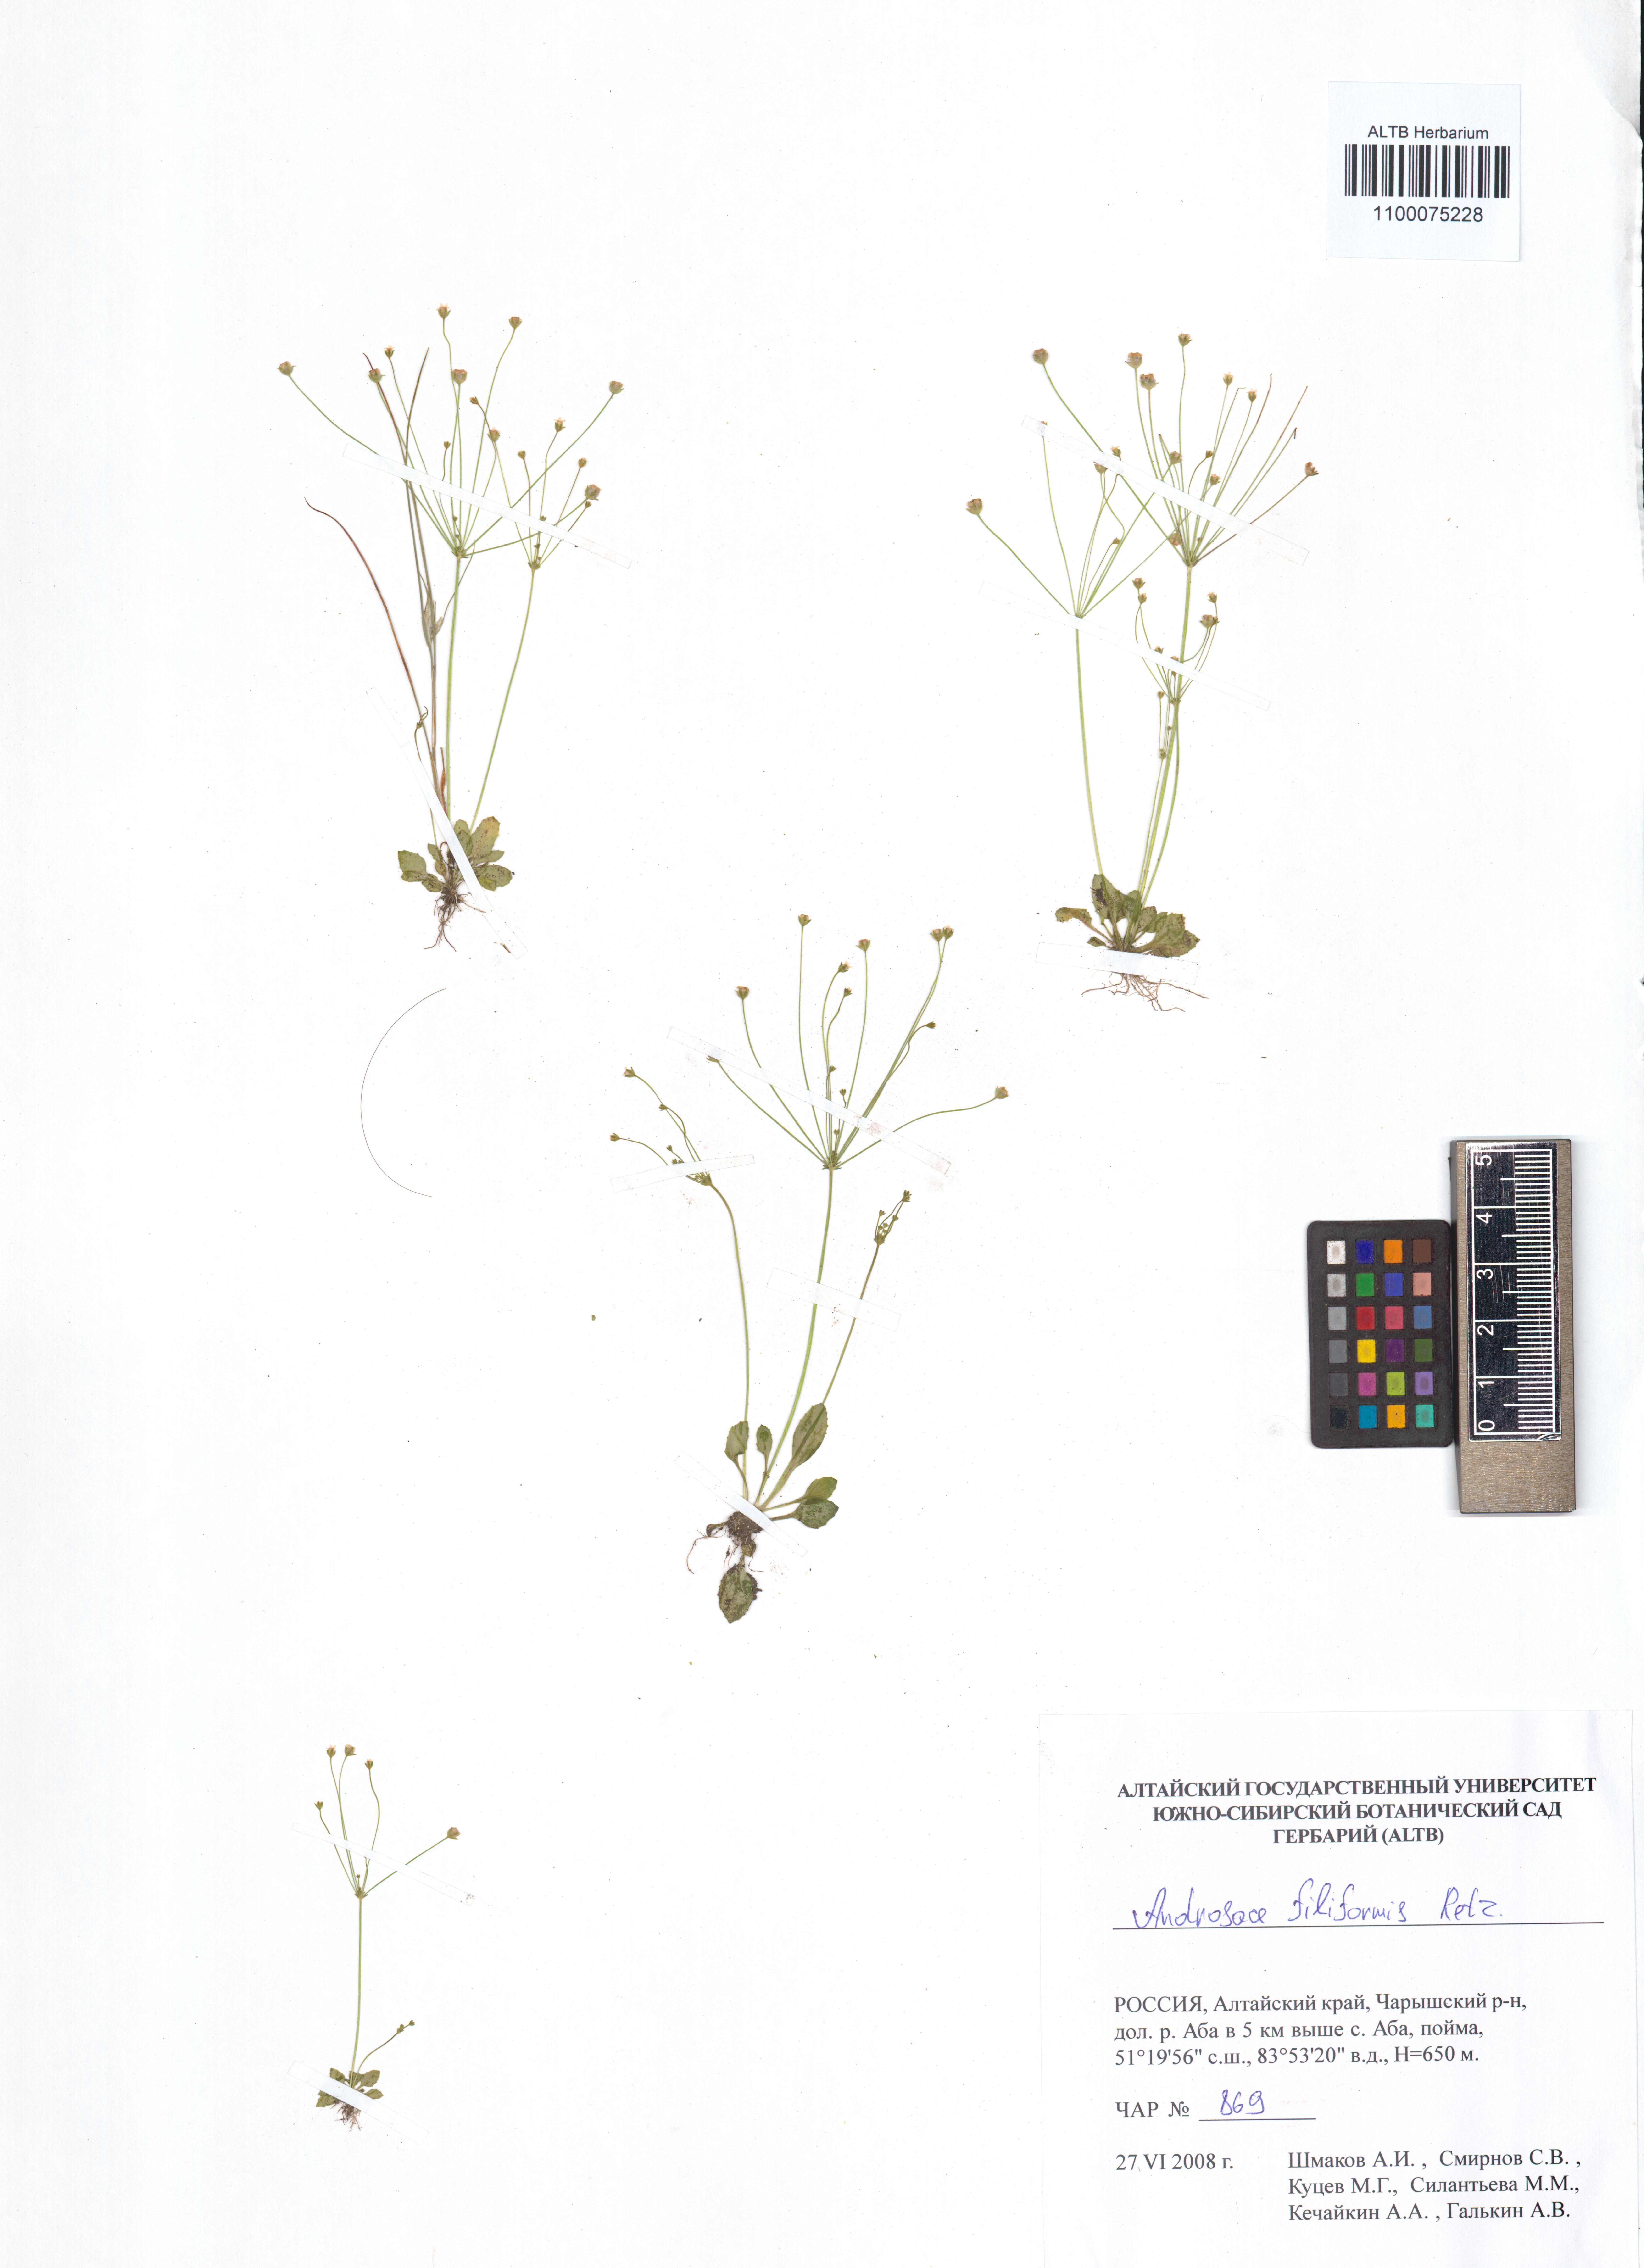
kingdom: Plantae
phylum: Tracheophyta
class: Magnoliopsida
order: Ericales
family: Primulaceae
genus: Androsace
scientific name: Androsace filiformis
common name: Filiform rock jasmine
